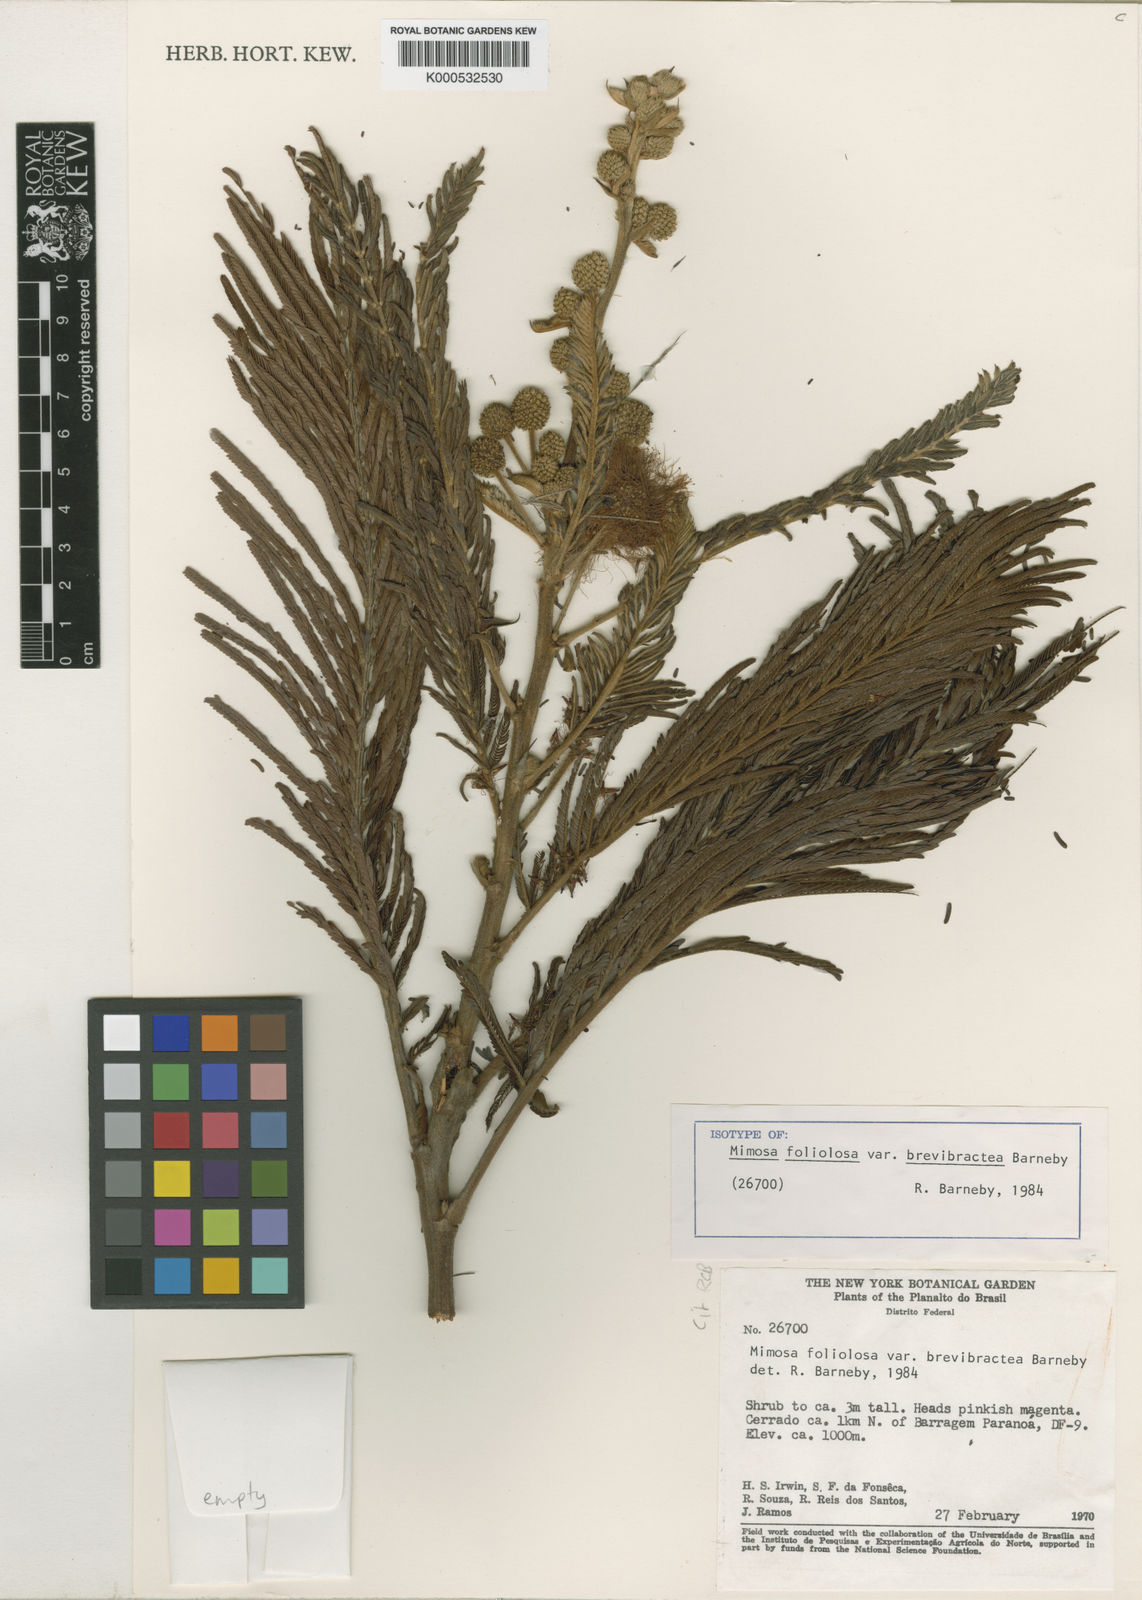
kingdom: Plantae
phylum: Tracheophyta
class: Magnoliopsida
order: Fabales
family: Fabaceae
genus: Mimosa
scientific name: Mimosa foliolosa
